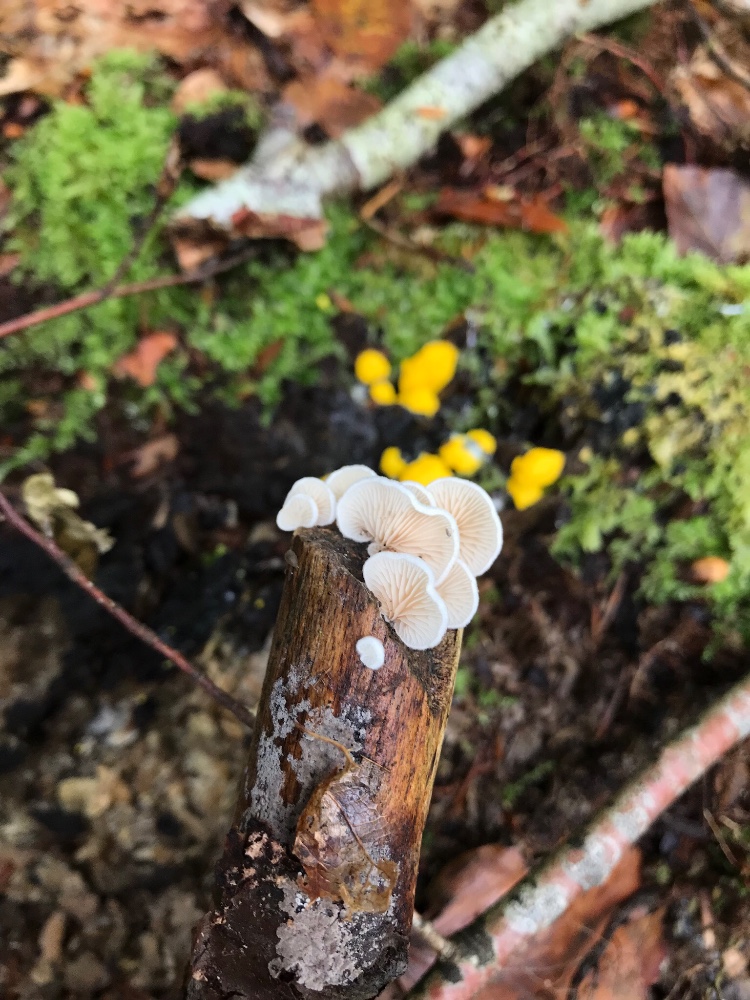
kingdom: Fungi
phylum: Basidiomycota
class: Agaricomycetes
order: Agaricales
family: Crepidotaceae
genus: Crepidotus
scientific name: Crepidotus
